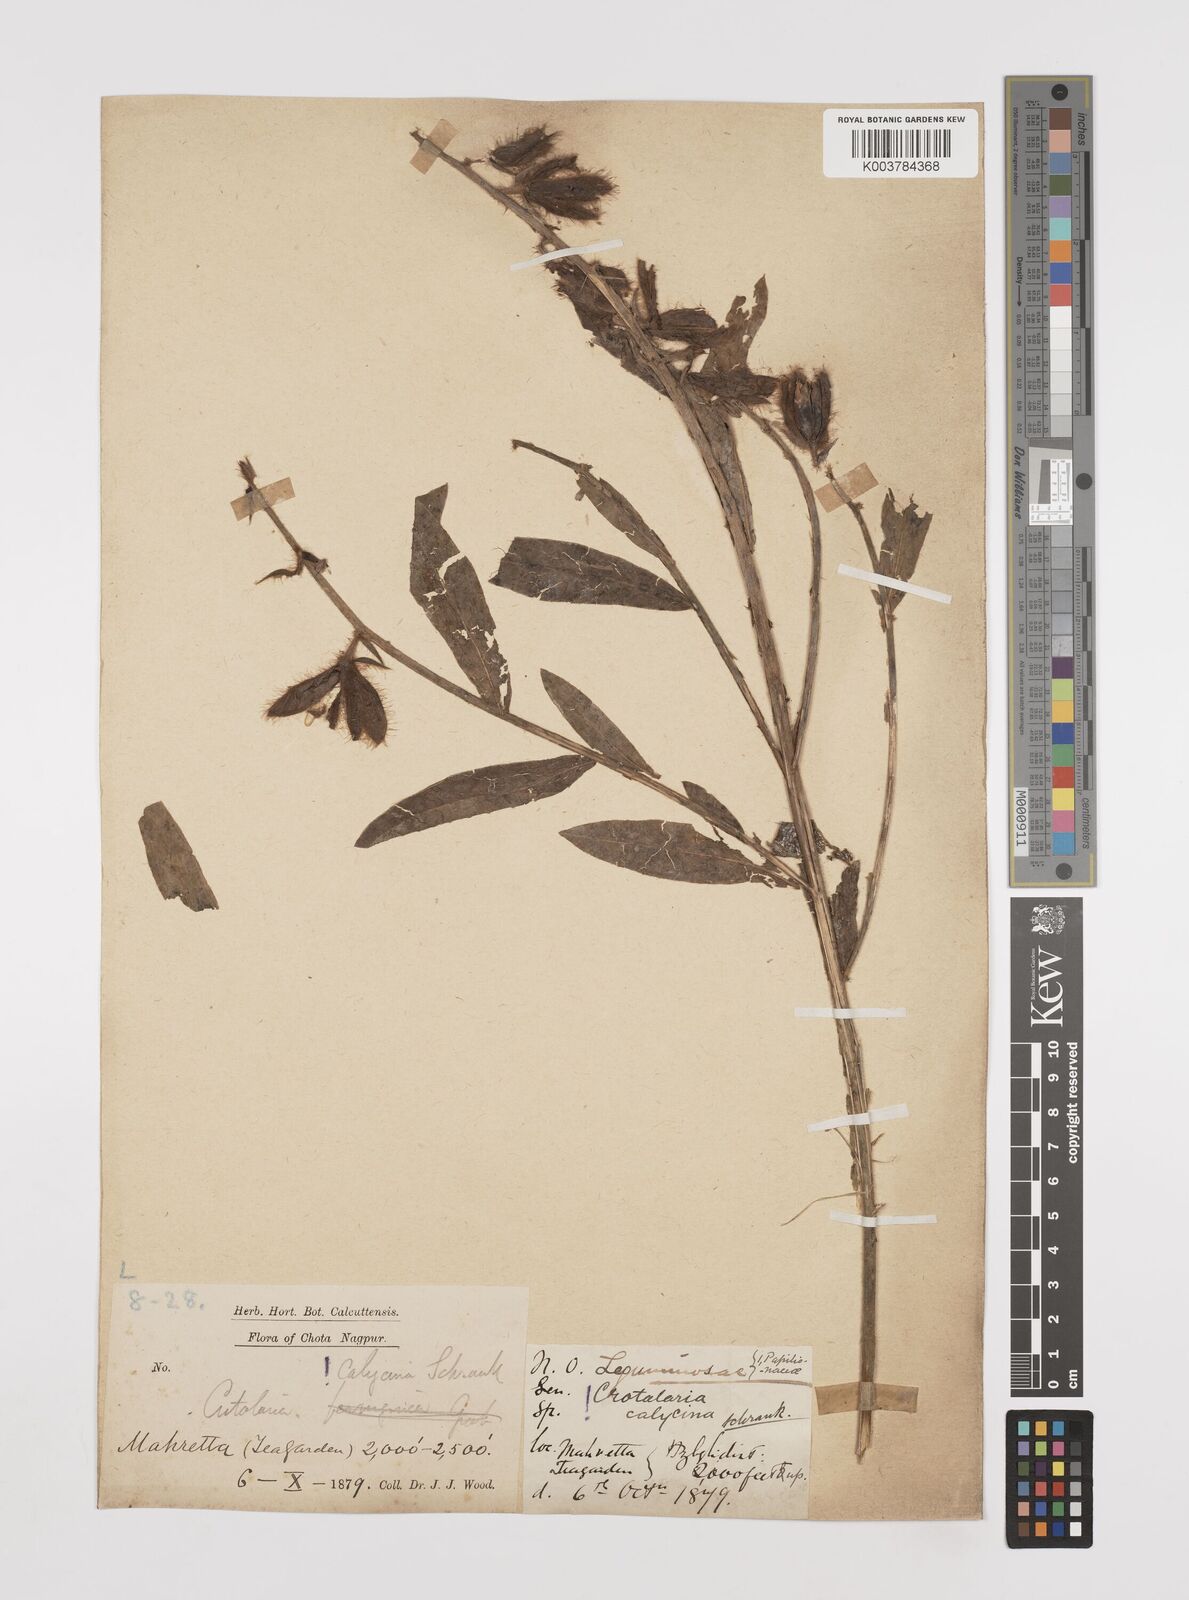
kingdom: Plantae
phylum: Tracheophyta
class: Magnoliopsida
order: Fabales
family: Fabaceae
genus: Crotalaria
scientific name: Crotalaria calycina
